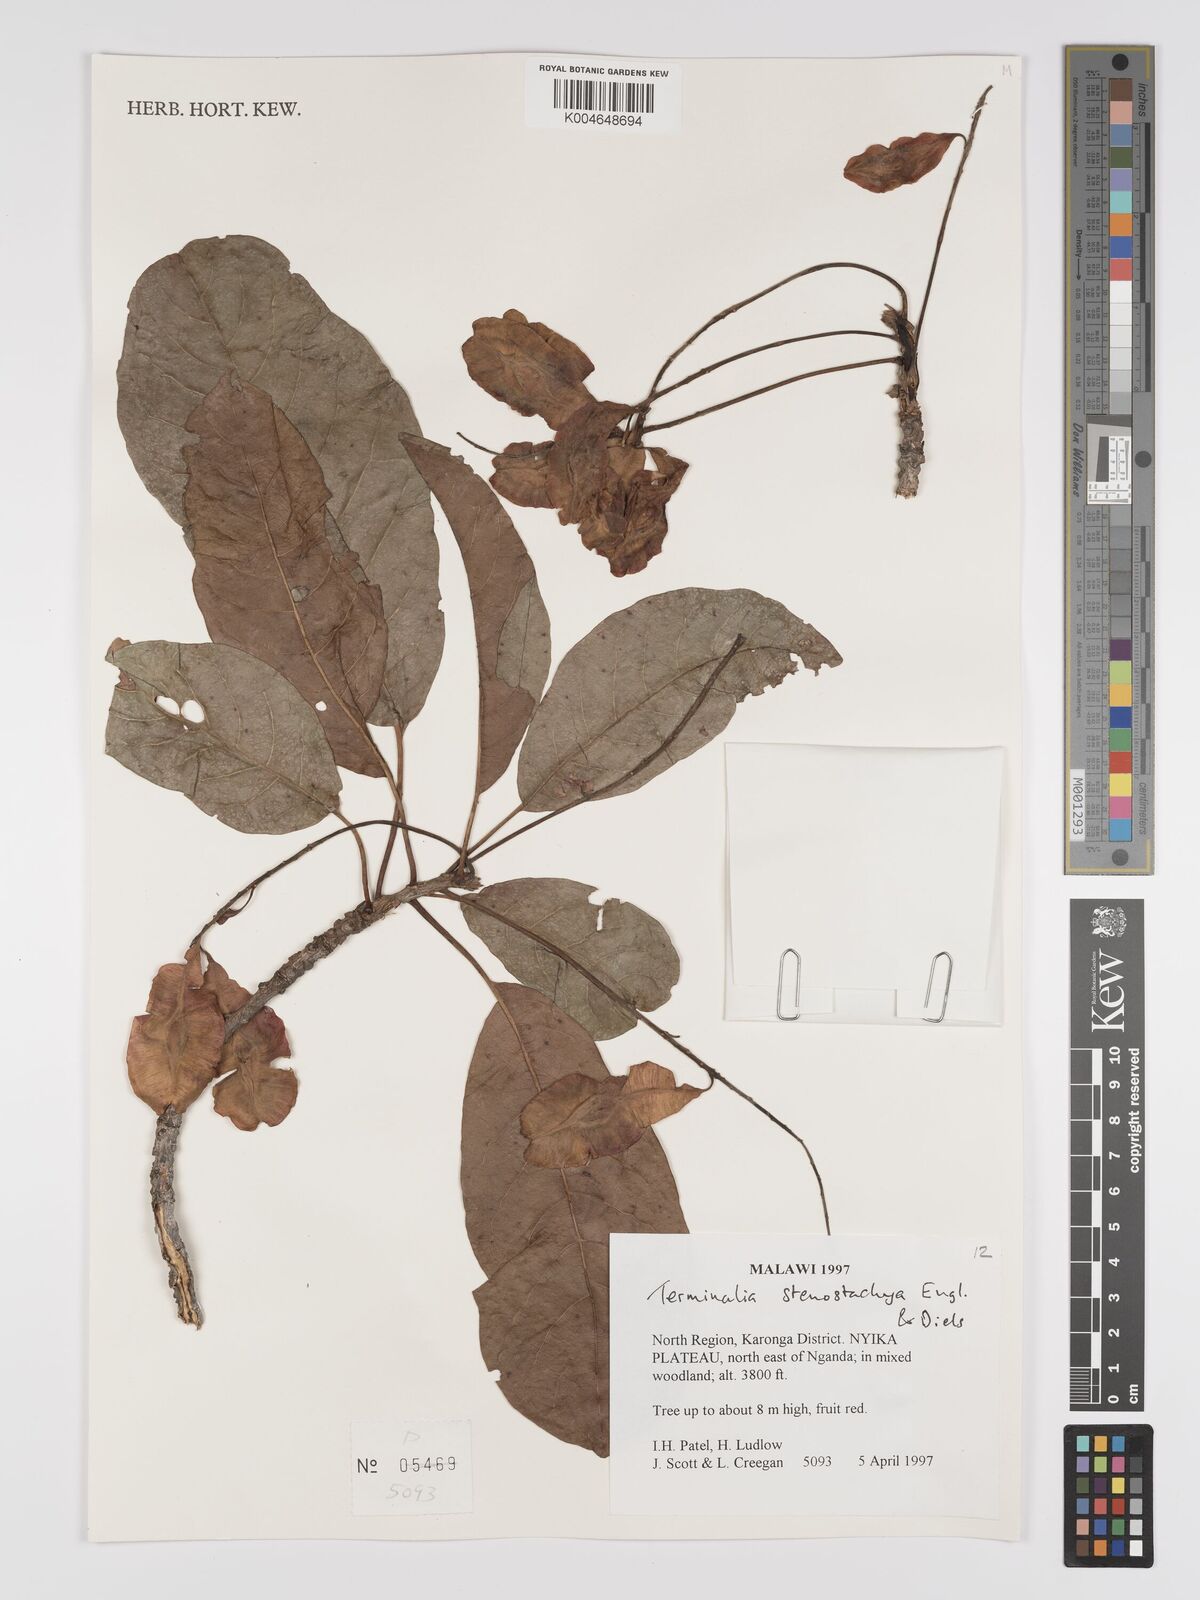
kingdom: Plantae
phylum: Tracheophyta
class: Magnoliopsida
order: Myrtales
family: Combretaceae
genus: Terminalia
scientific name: Terminalia stenostachya
